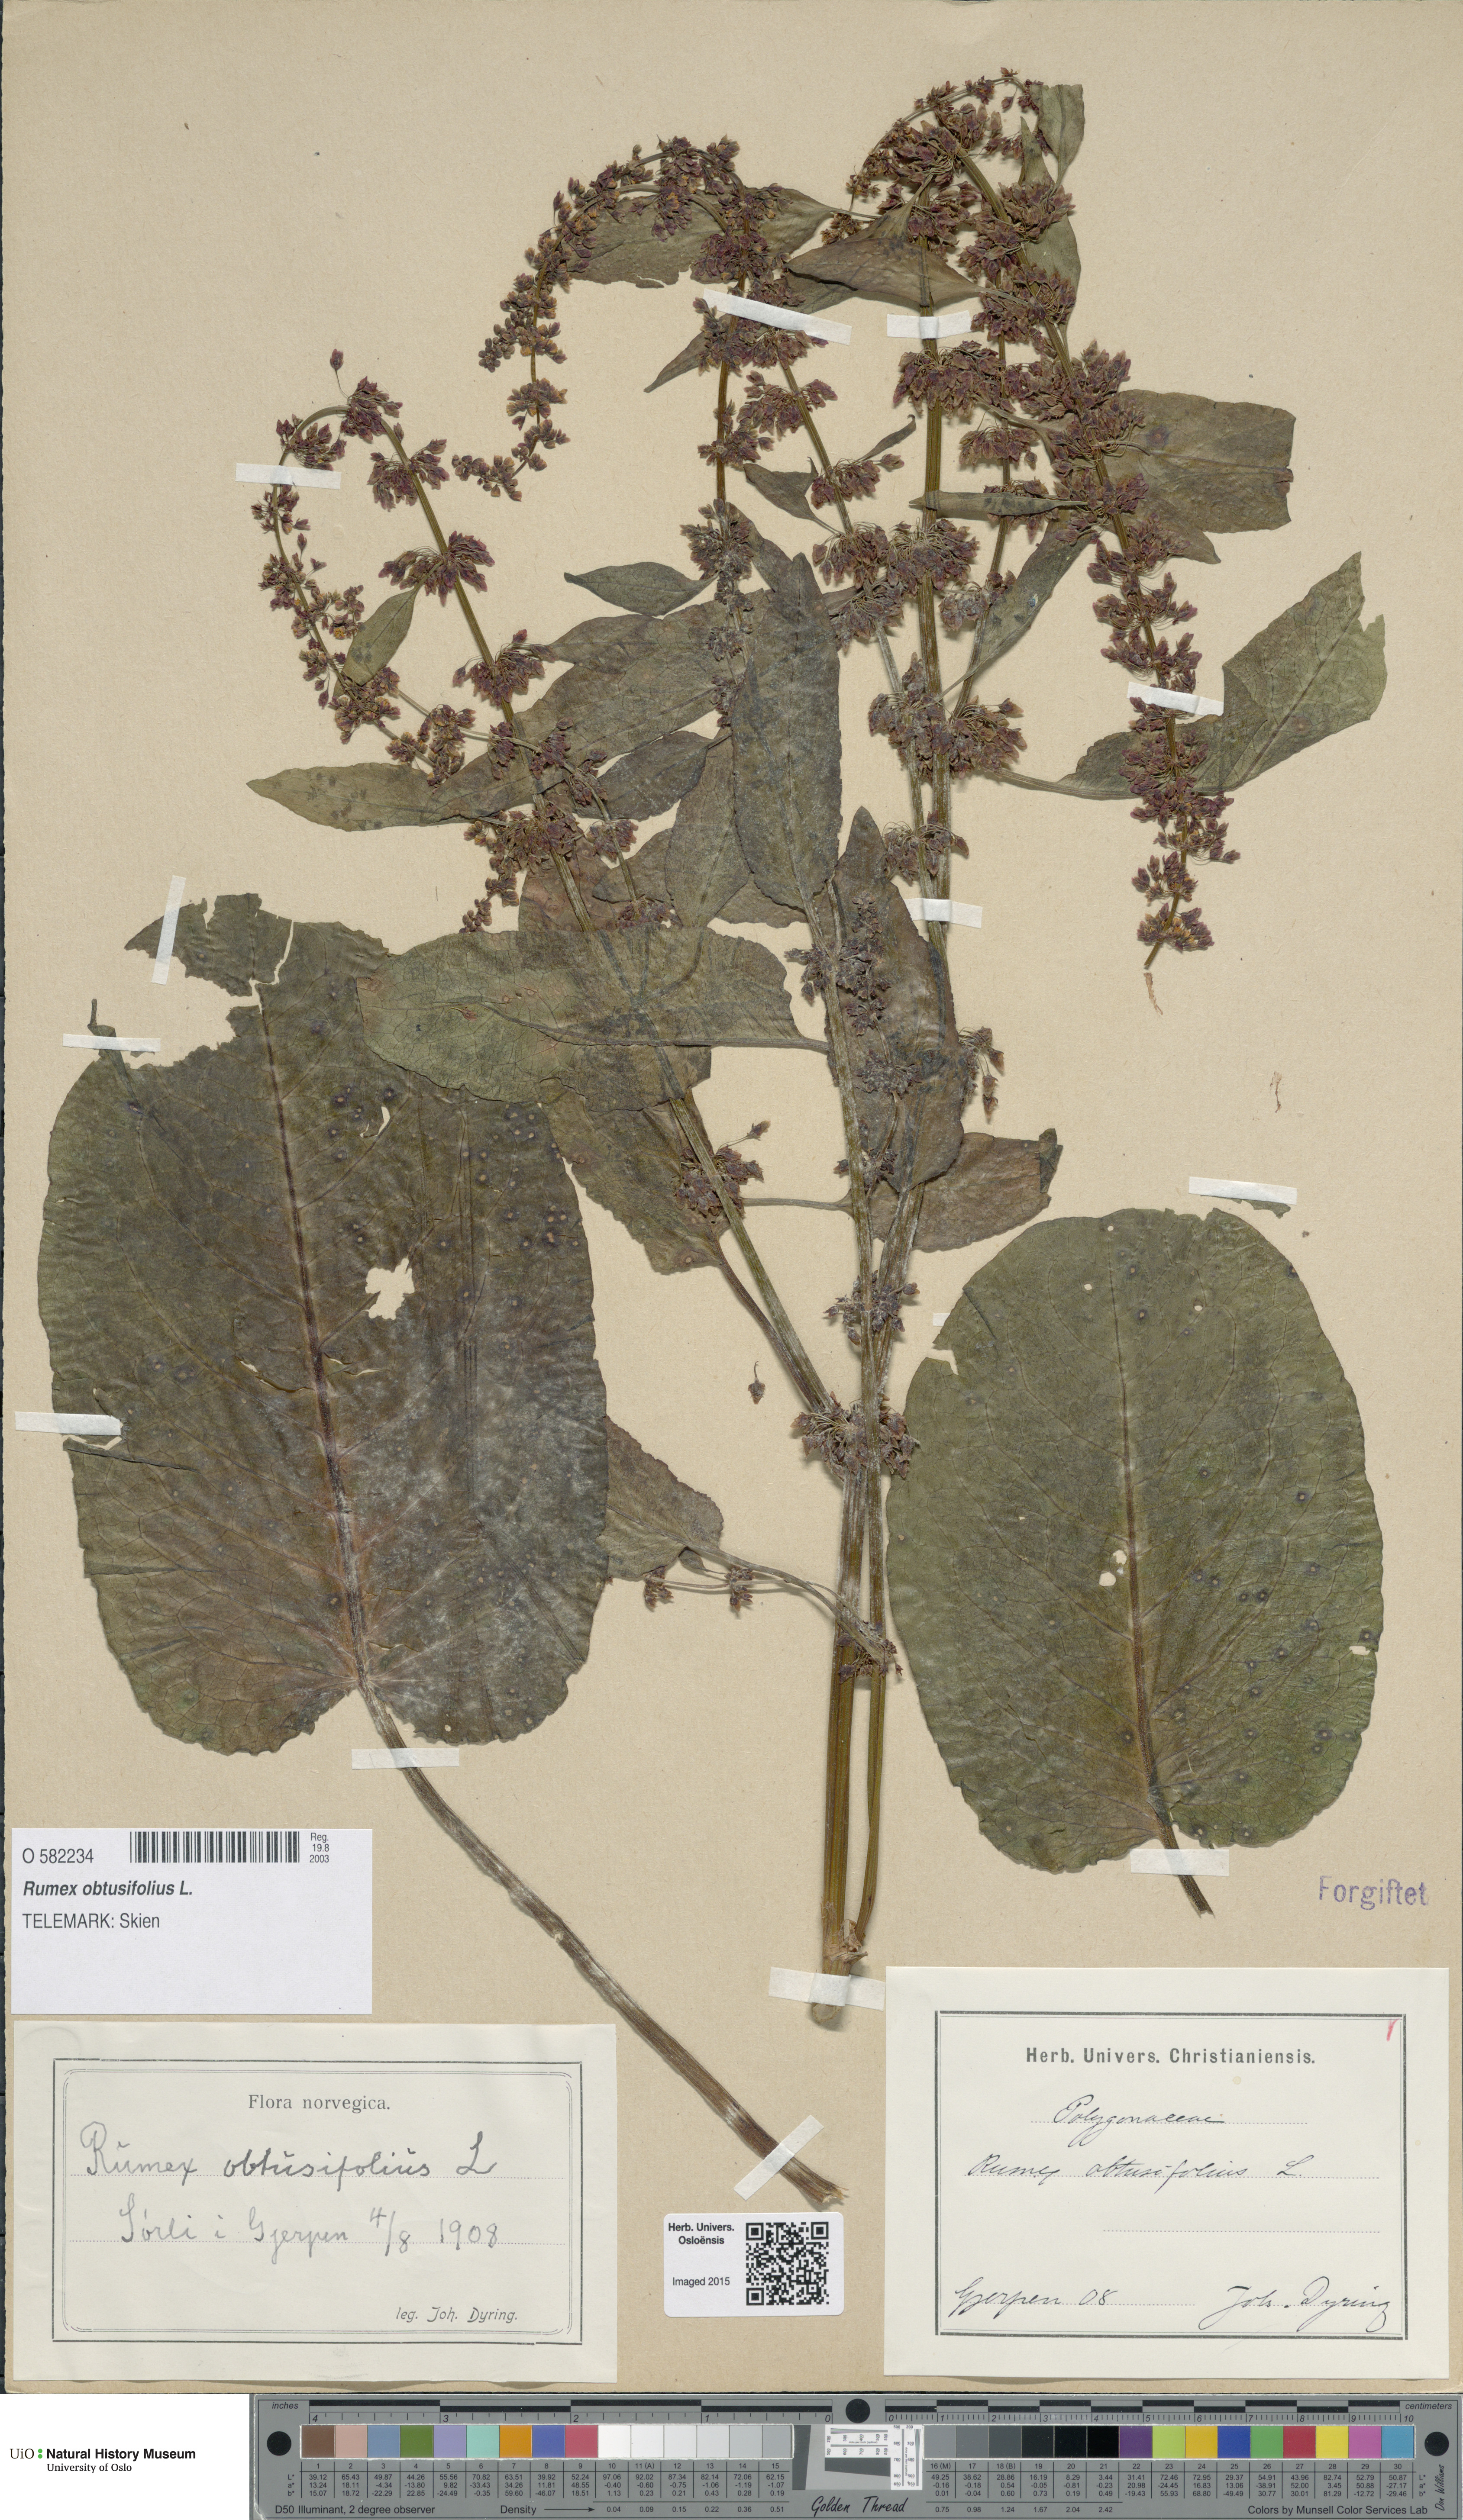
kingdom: Plantae
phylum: Tracheophyta
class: Magnoliopsida
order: Caryophyllales
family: Polygonaceae
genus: Rumex
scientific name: Rumex obtusifolius
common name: Bitter dock
